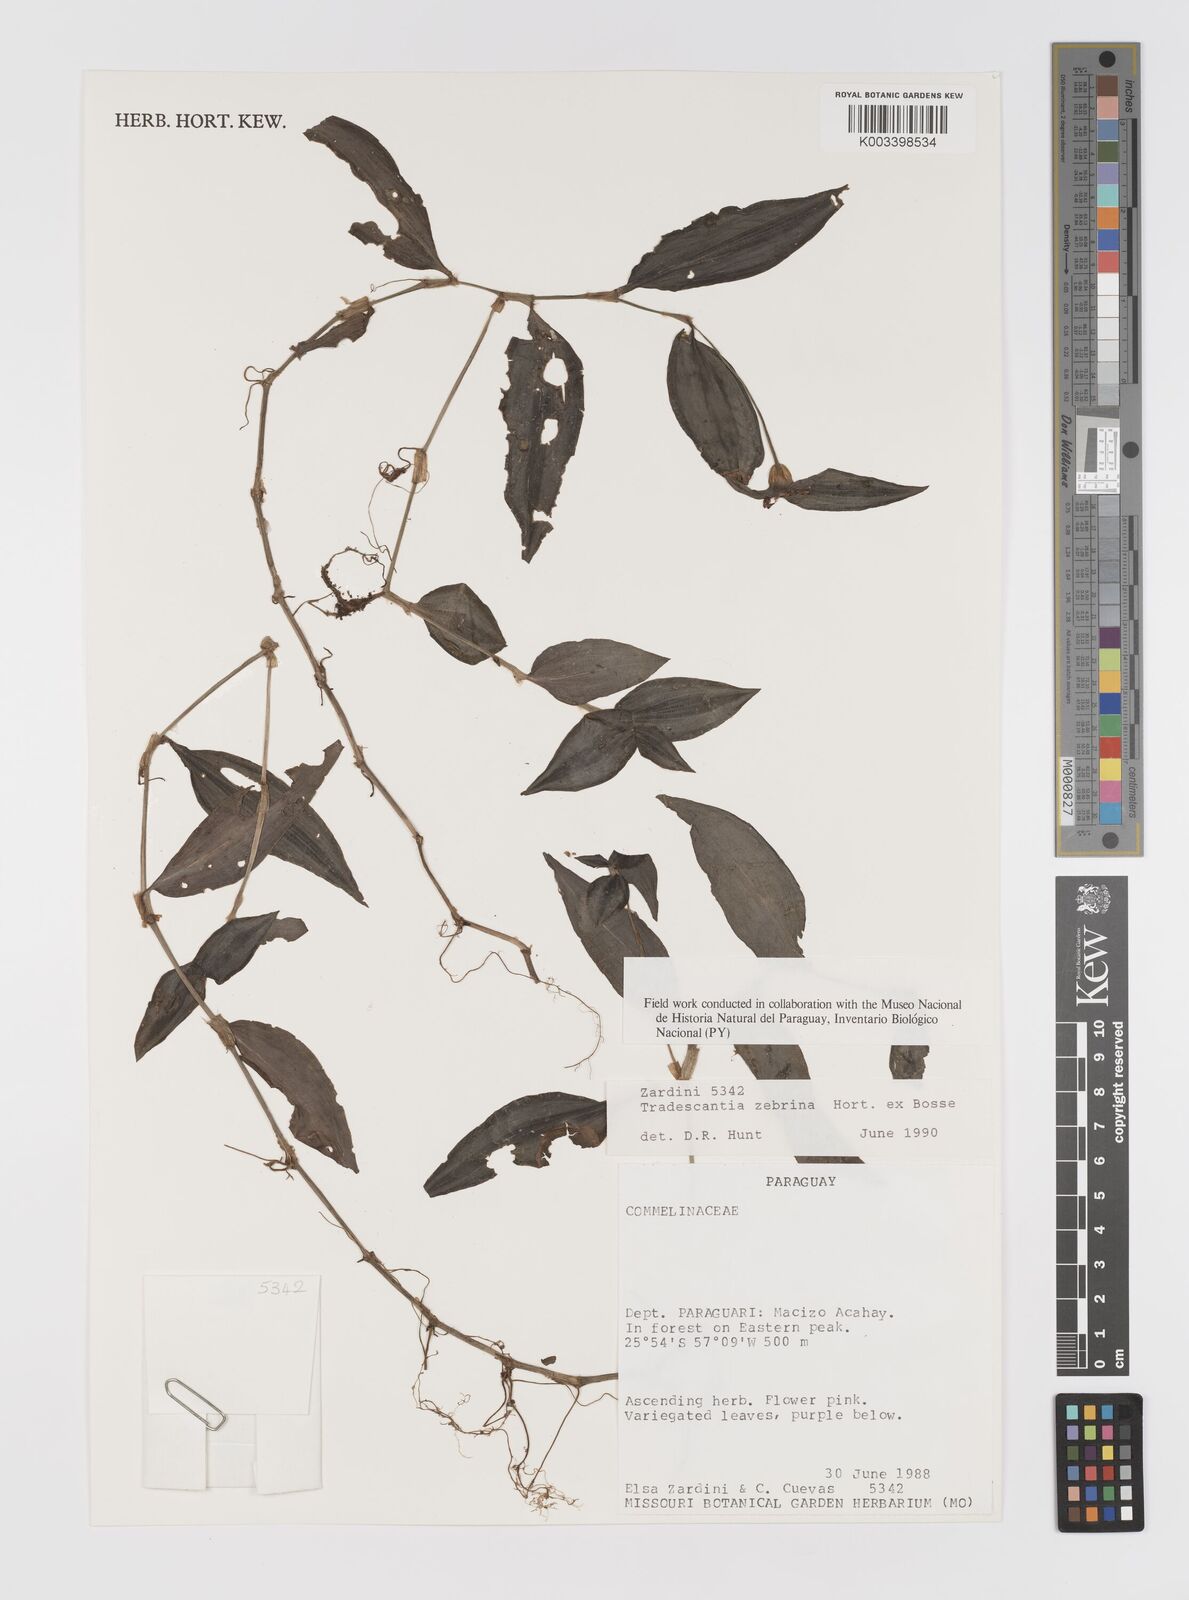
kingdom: Plantae
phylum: Tracheophyta
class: Liliopsida
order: Commelinales
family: Commelinaceae
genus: Tradescantia
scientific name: Tradescantia zebrina
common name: Inchplant
